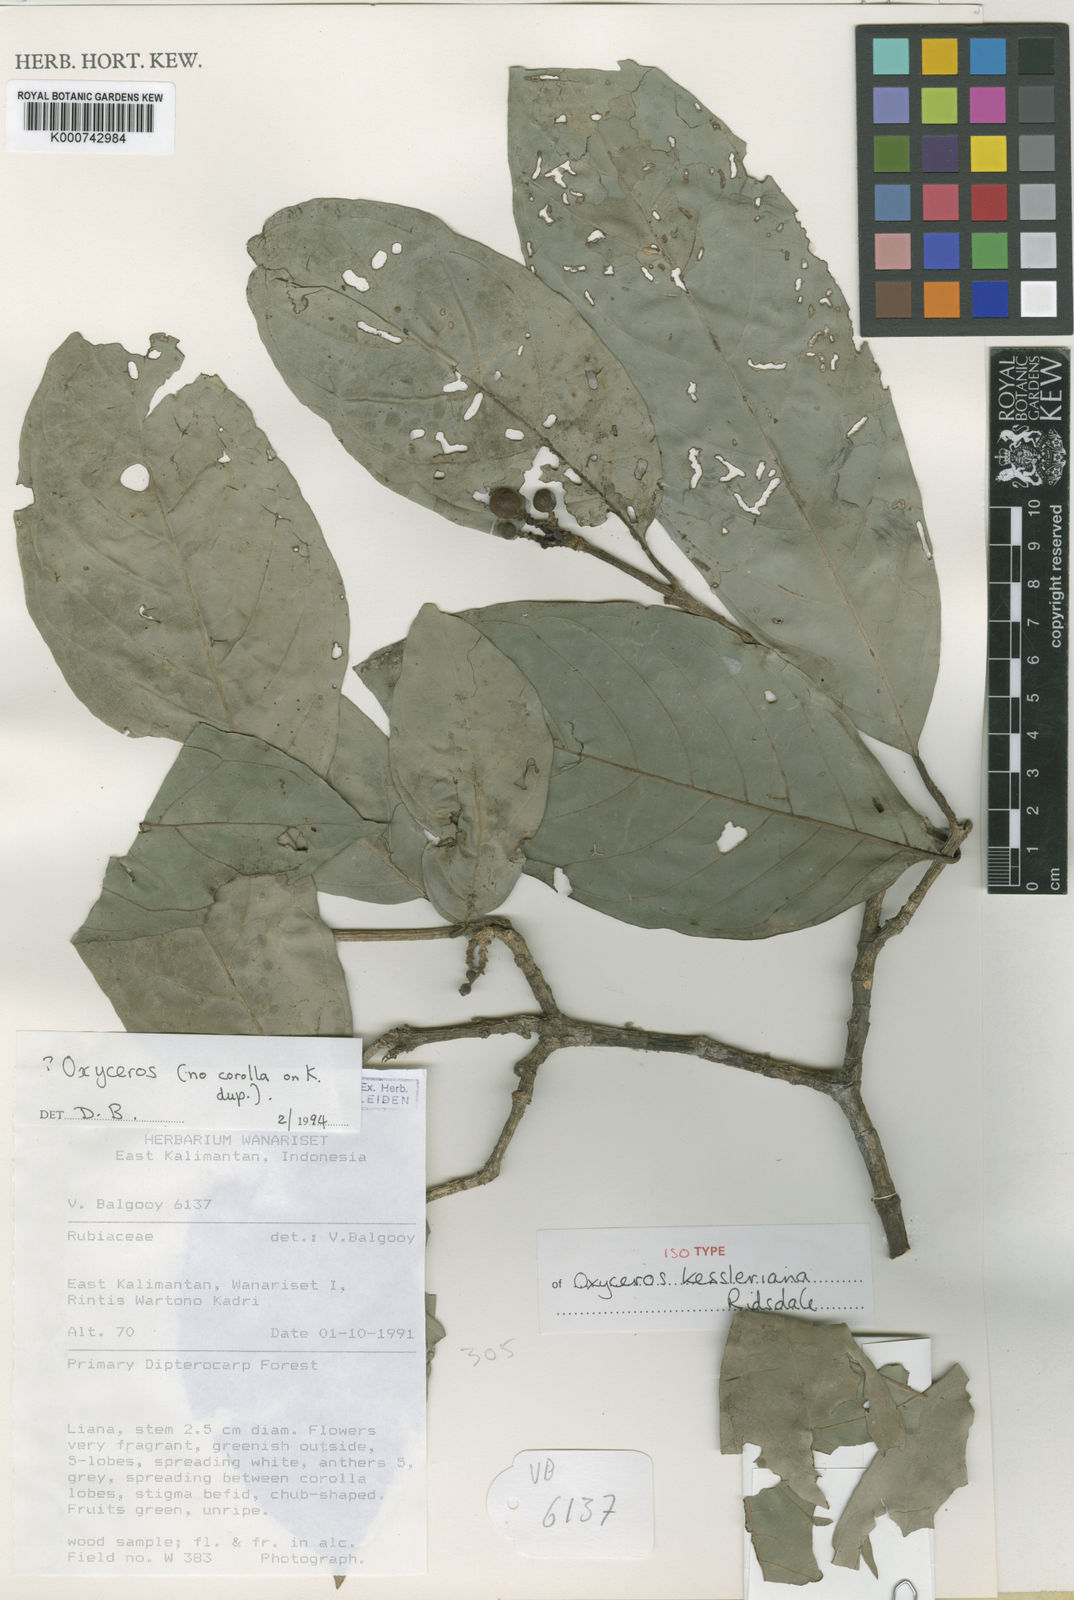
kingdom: Plantae
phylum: Tracheophyta
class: Magnoliopsida
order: Gentianales
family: Rubiaceae
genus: Oxyceros
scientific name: Oxyceros kesslerianus
